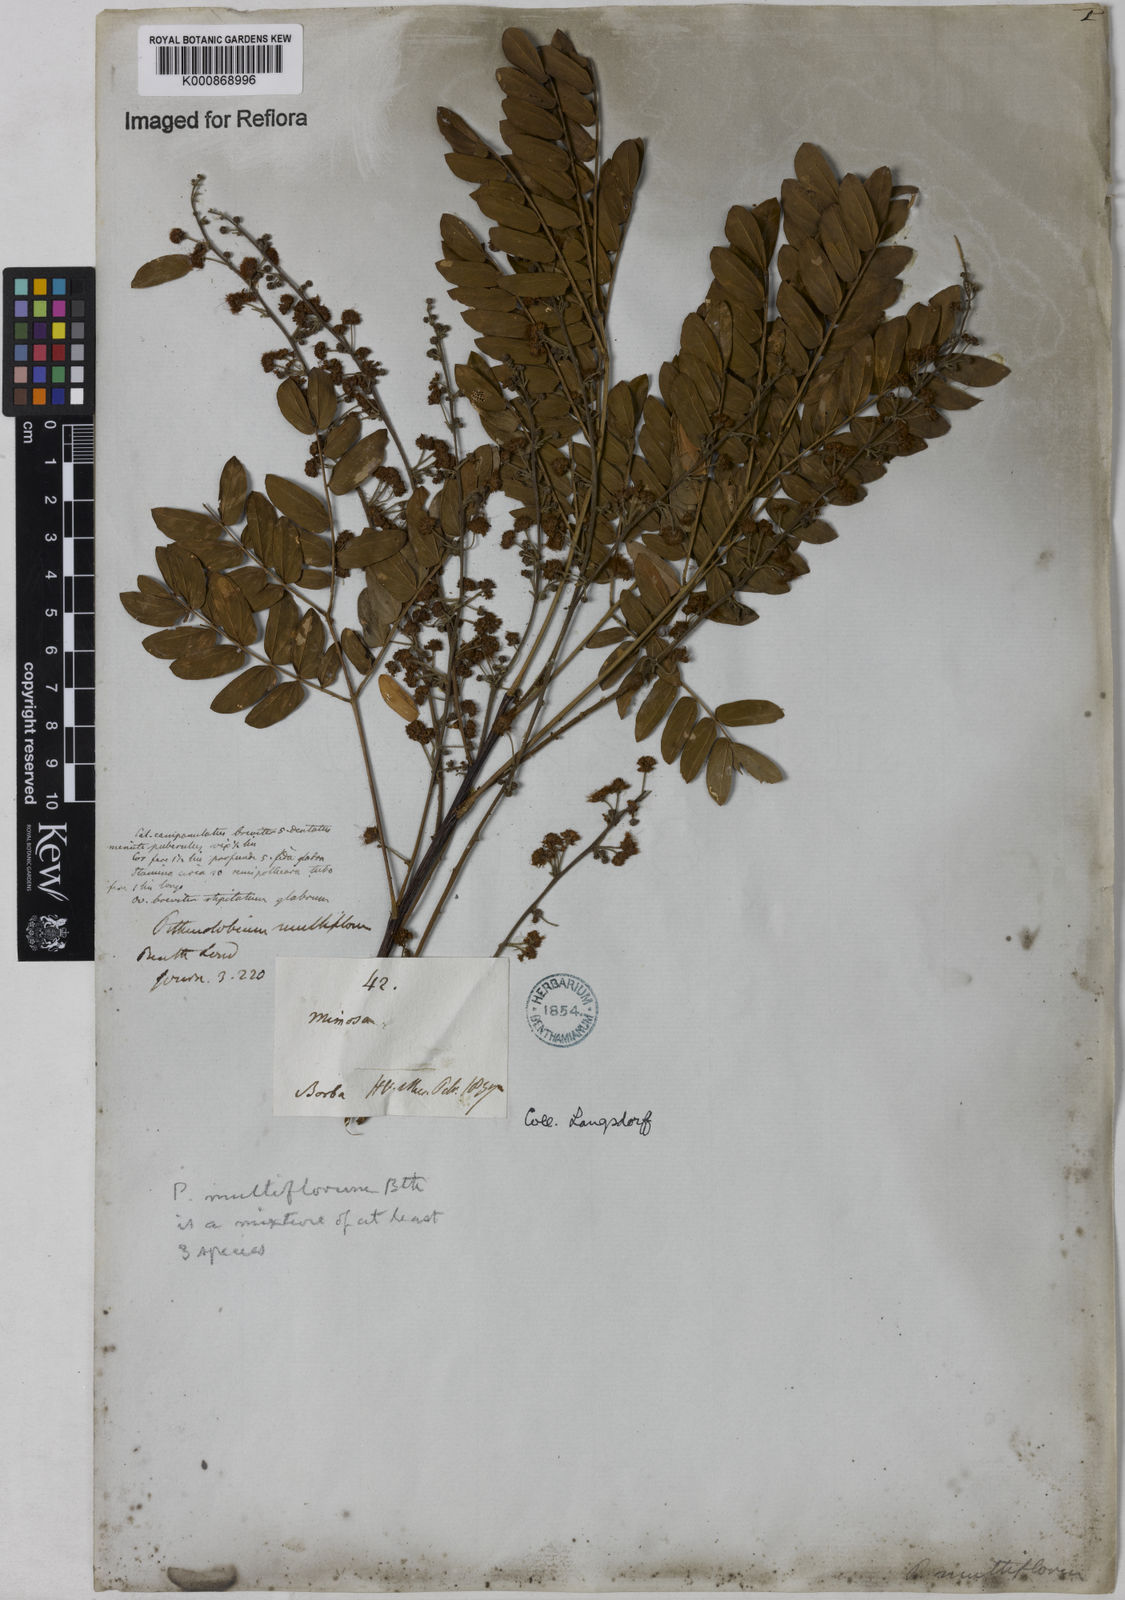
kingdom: Plantae
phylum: Tracheophyta
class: Magnoliopsida
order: Fabales
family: Fabaceae
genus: Albizia
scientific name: Albizia multiflora
